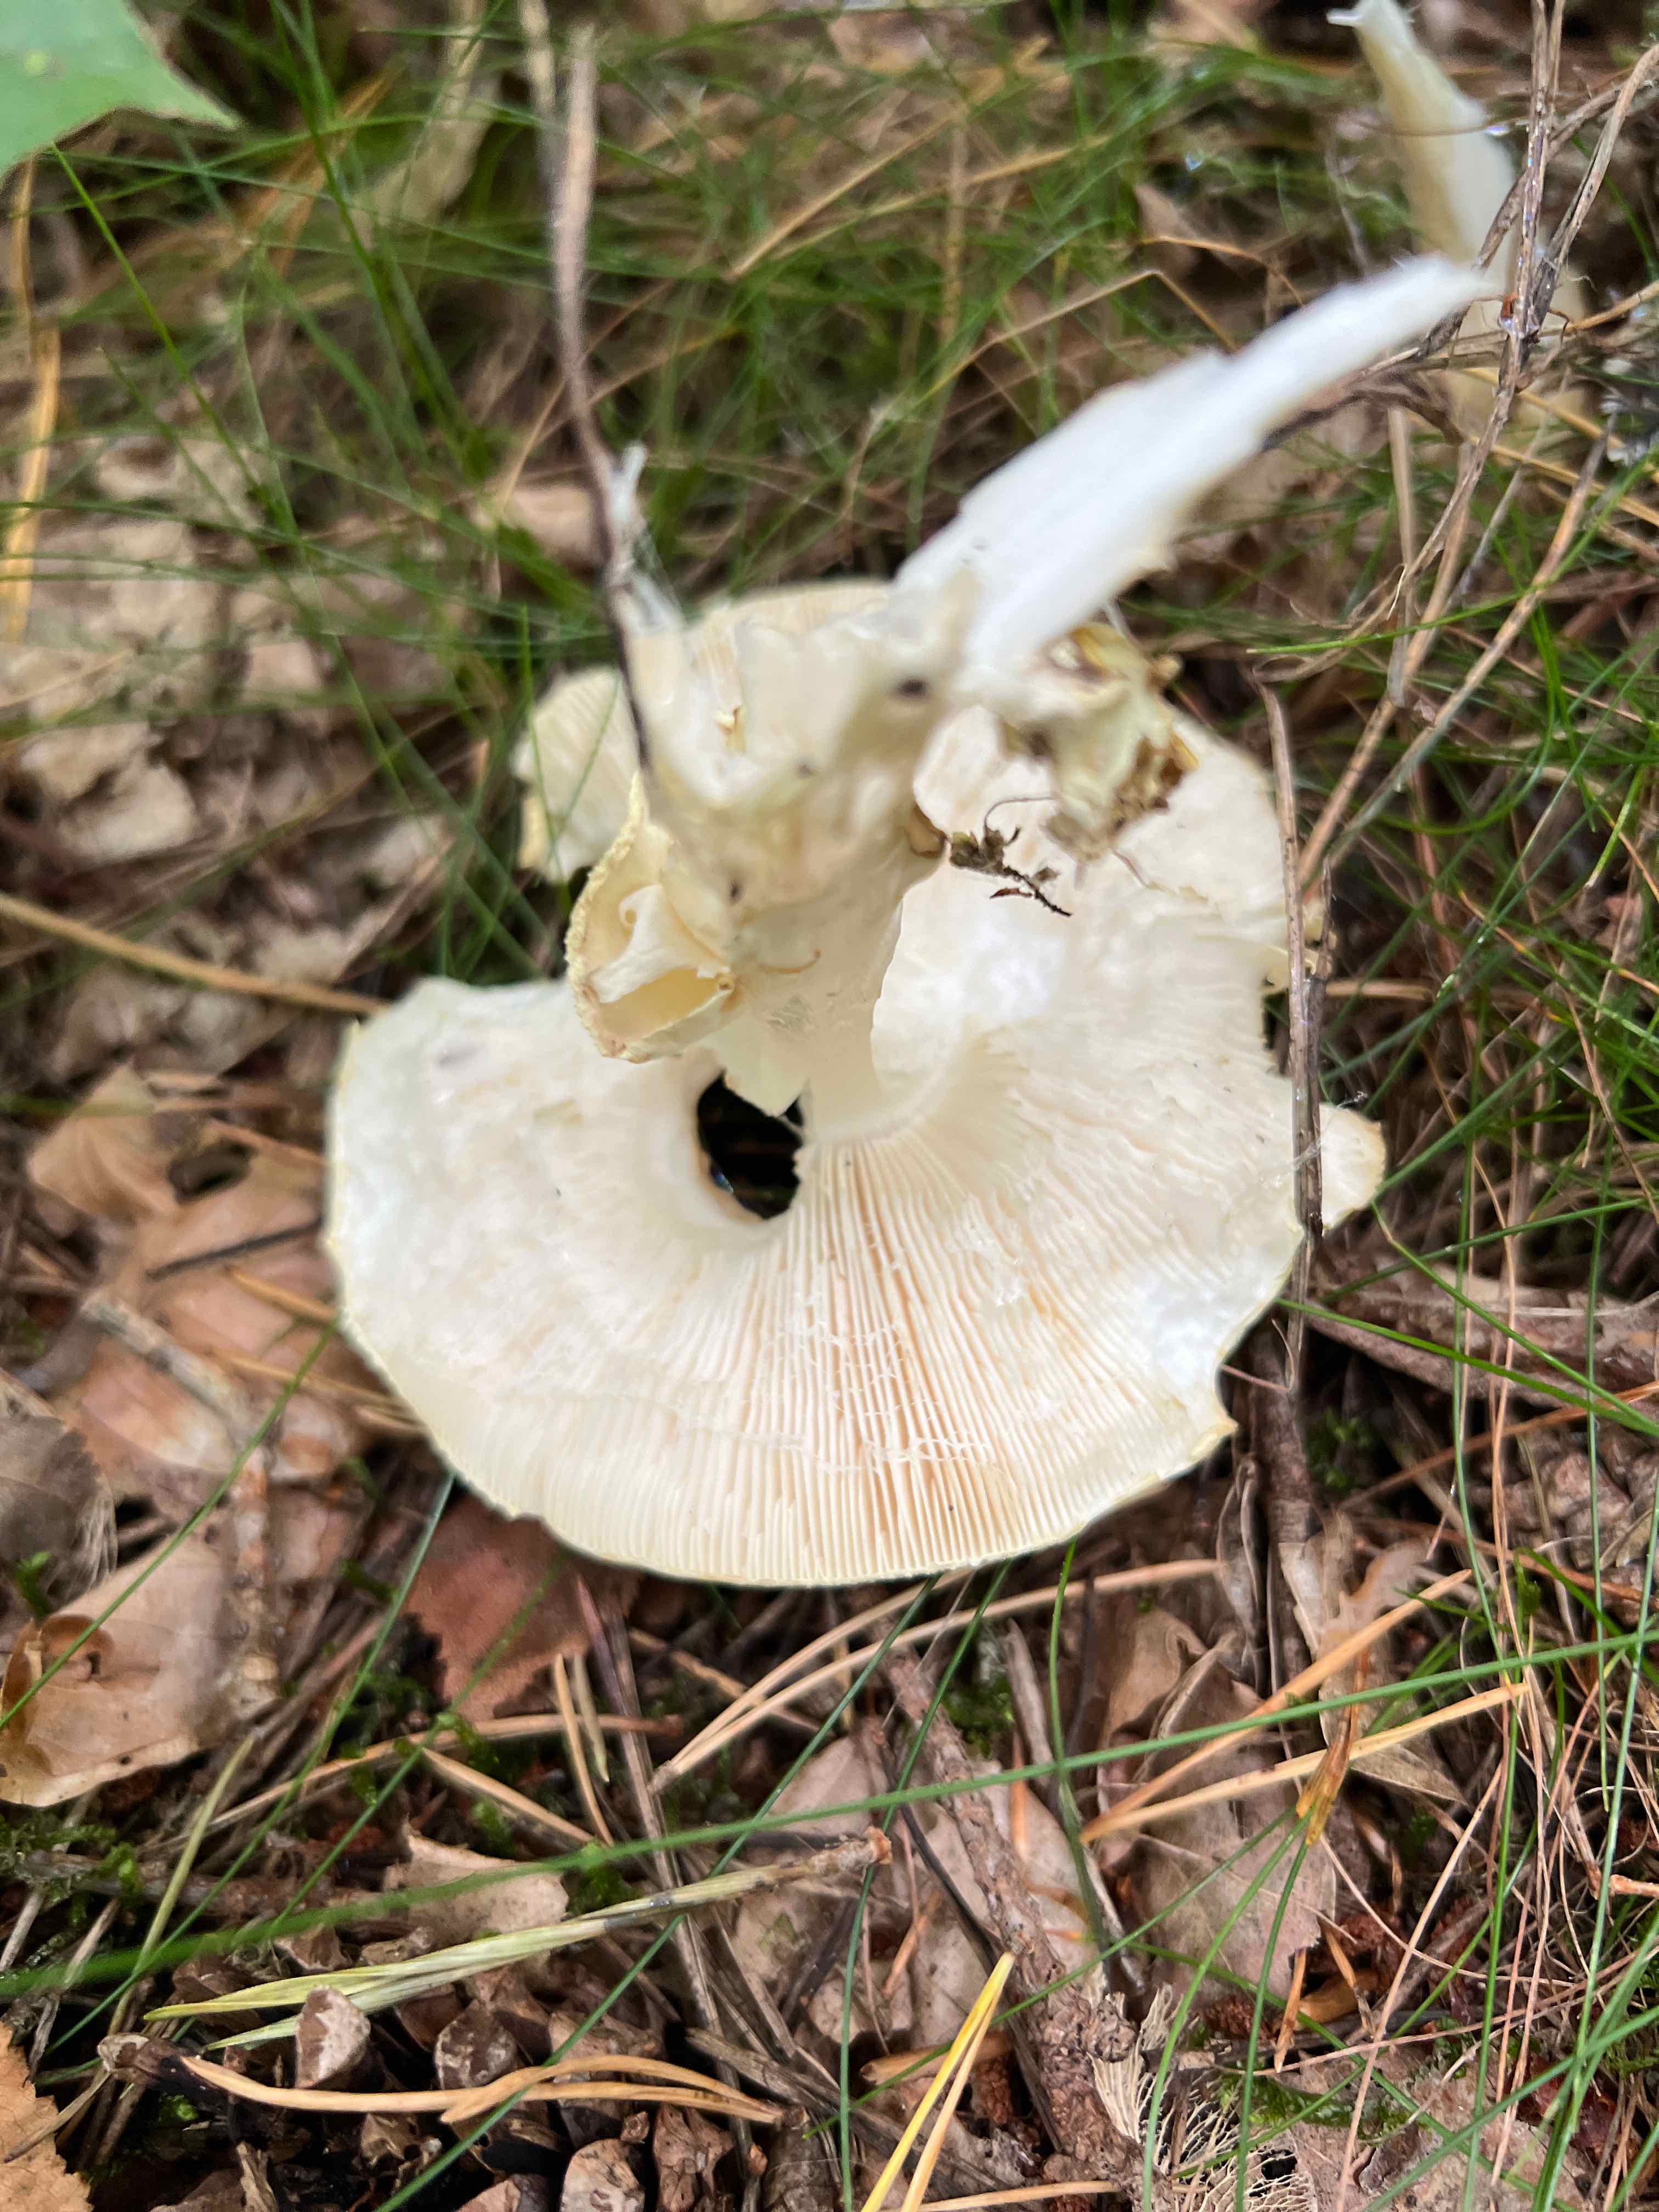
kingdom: Fungi
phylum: Basidiomycota
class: Agaricomycetes
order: Agaricales
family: Amanitaceae
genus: Amanita
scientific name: Amanita citrina
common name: kugleknoldet fluesvamp
